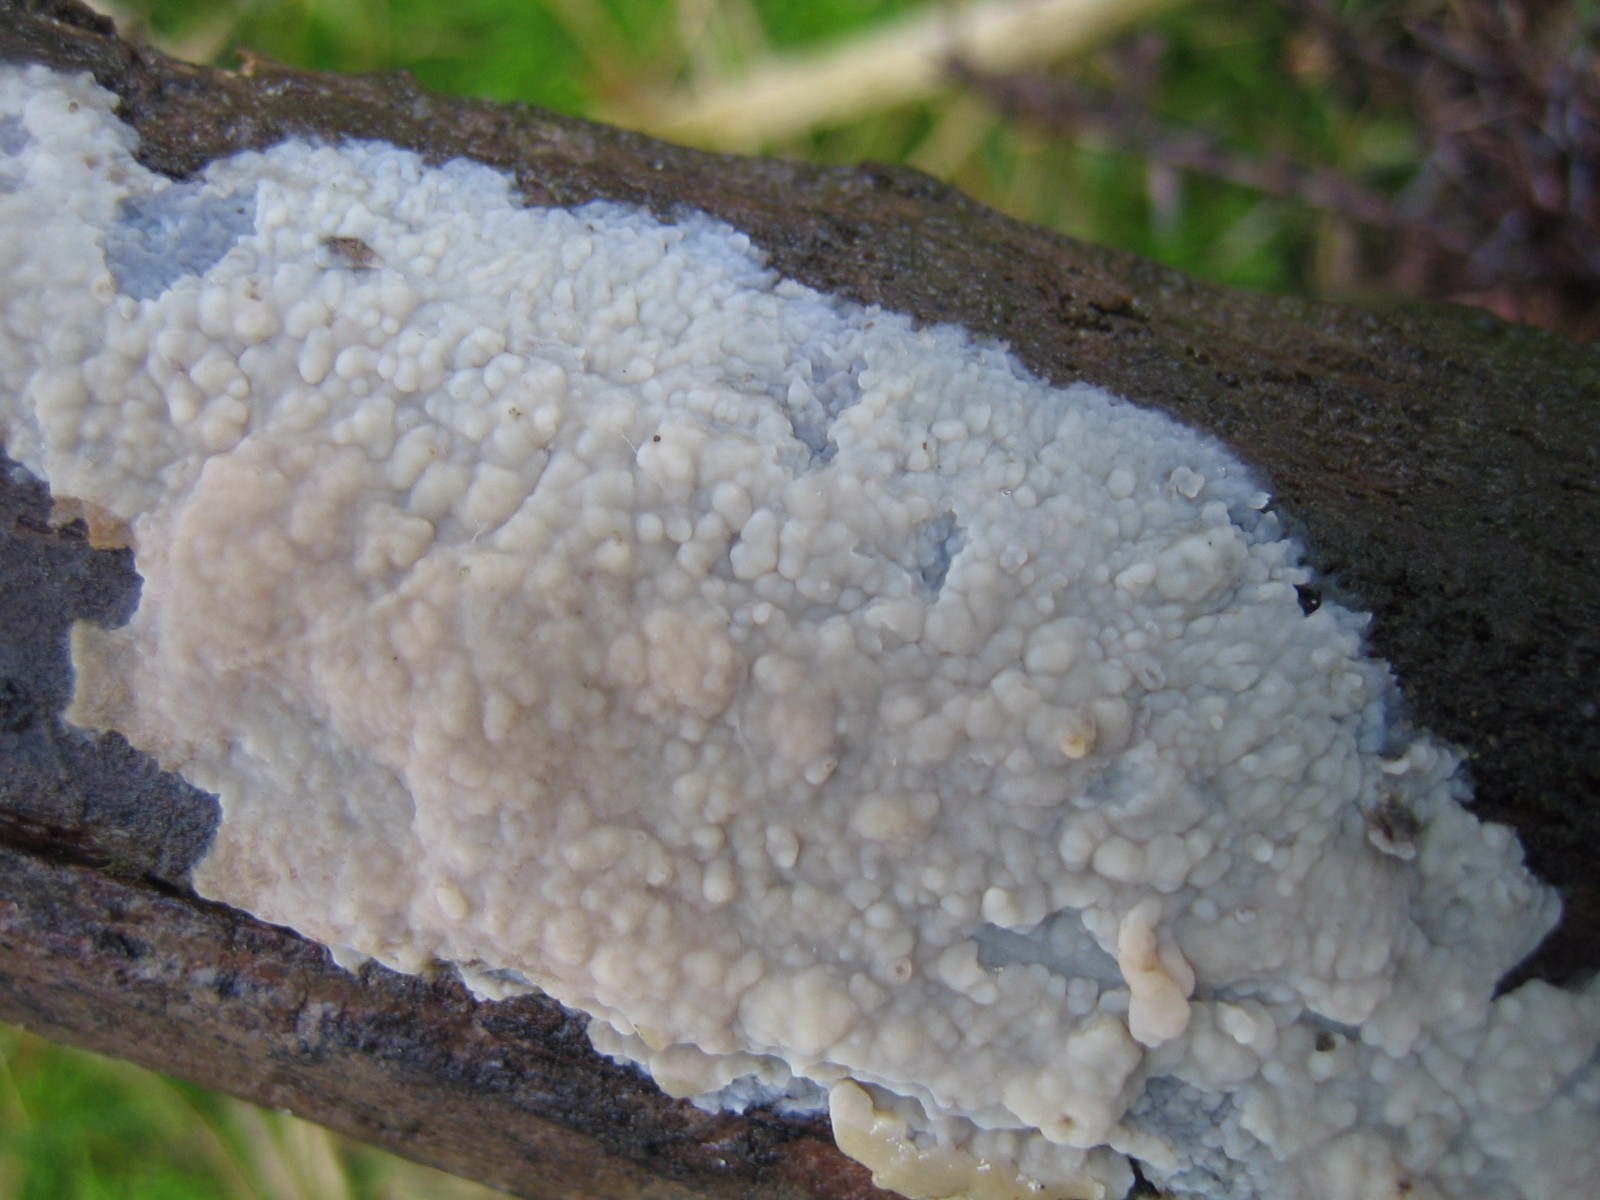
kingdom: Fungi
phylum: Basidiomycota
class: Agaricomycetes
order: Agaricales
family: Radulomycetaceae
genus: Radulomyces
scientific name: Radulomyces confluens
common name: glat naftalinskind
